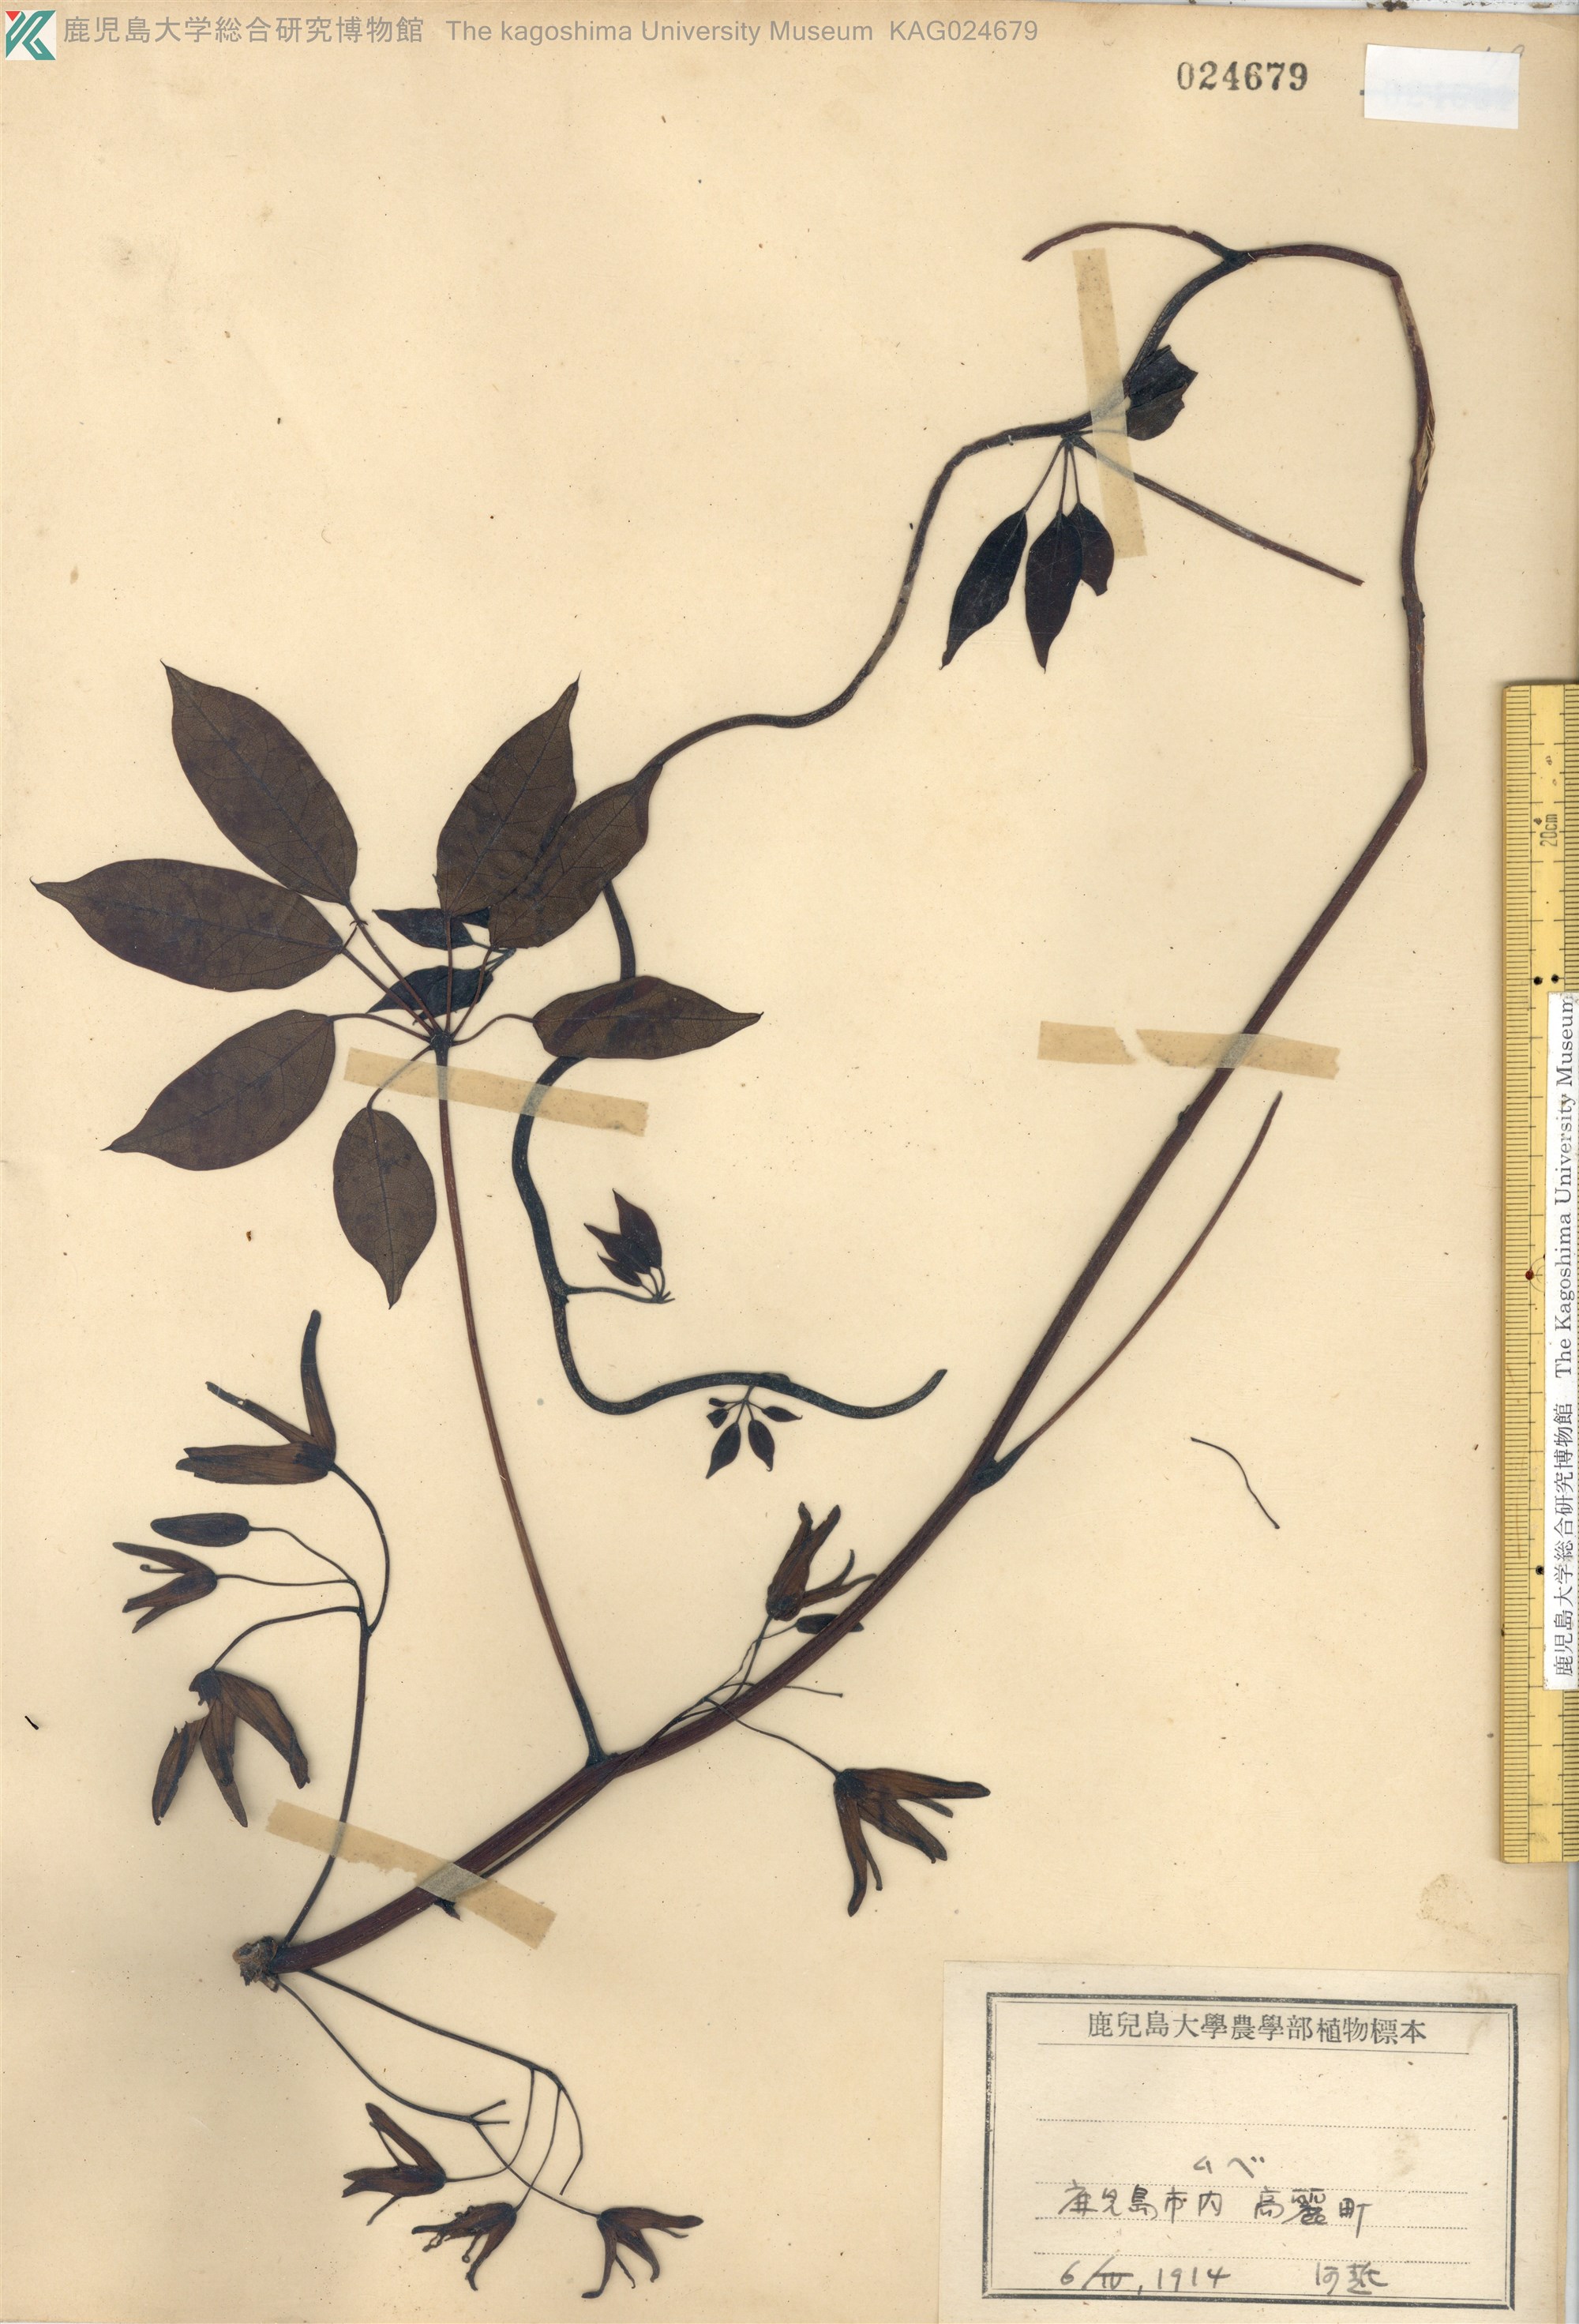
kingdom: Plantae
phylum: Tracheophyta
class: Magnoliopsida
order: Ranunculales
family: Lardizabalaceae
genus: Stauntonia
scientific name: Stauntonia hexaphylla
